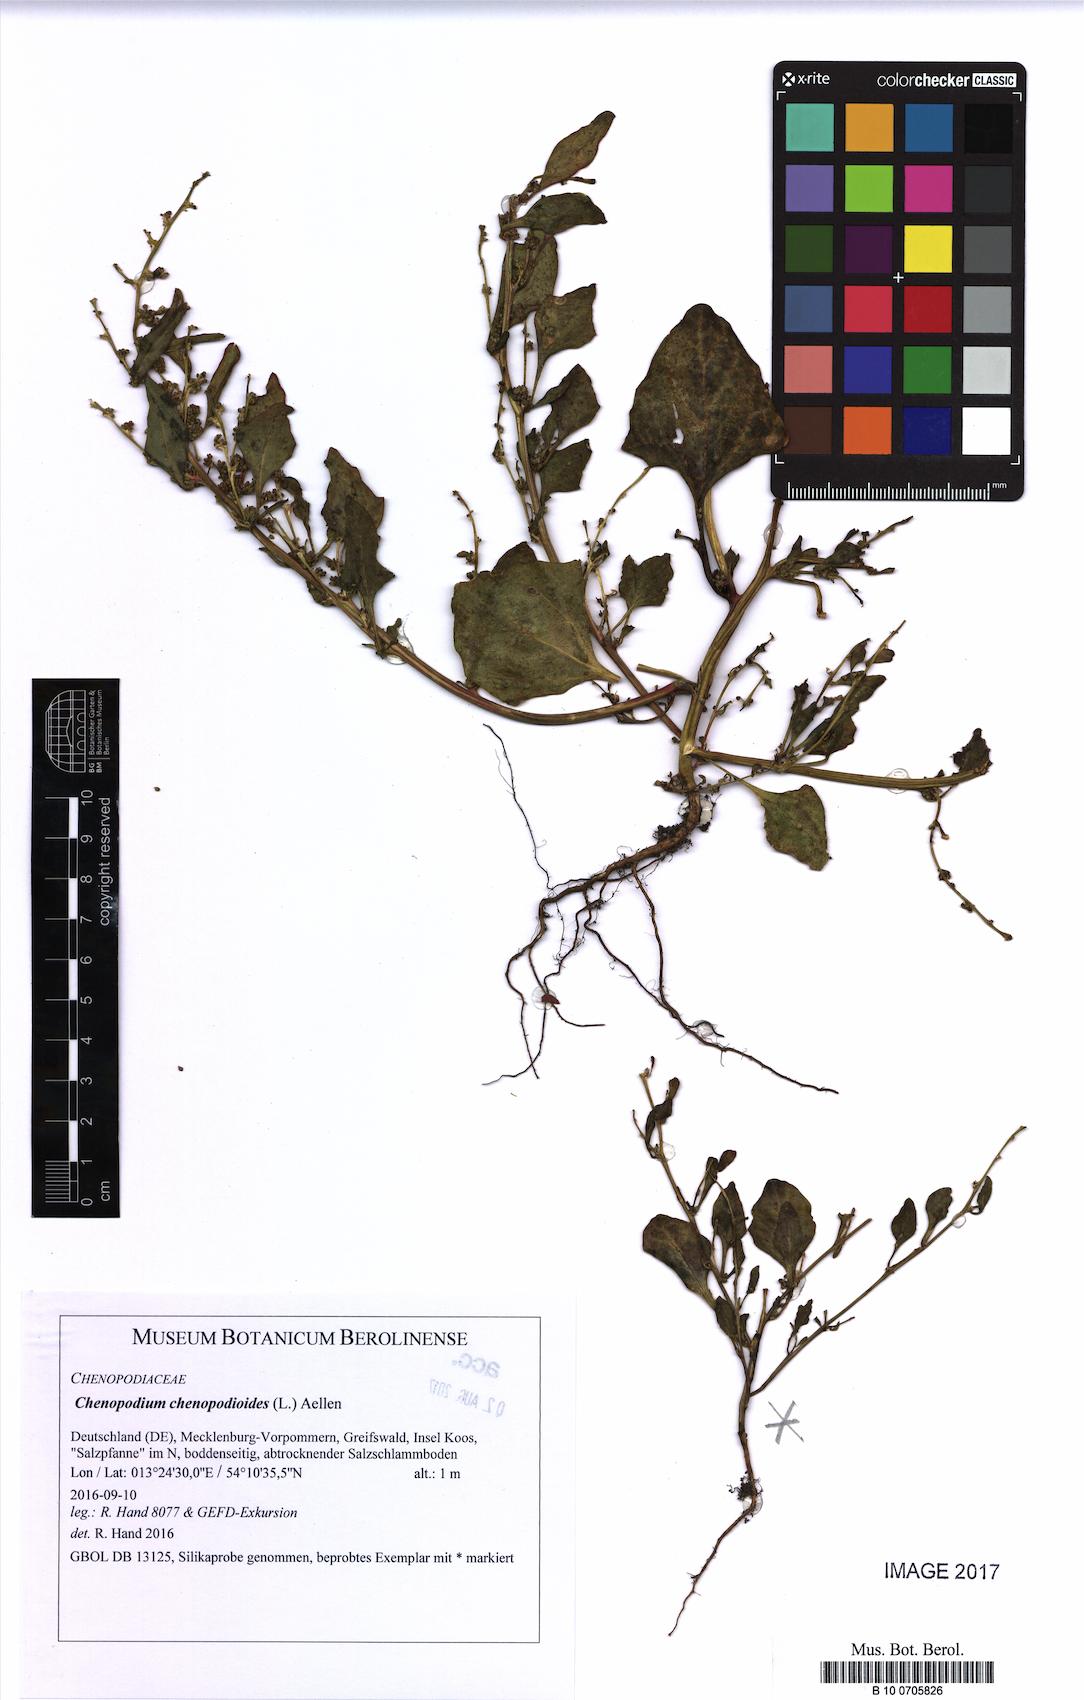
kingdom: Plantae
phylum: Tracheophyta
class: Magnoliopsida
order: Caryophyllales
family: Amaranthaceae
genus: Oxybasis
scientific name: Oxybasis chenopodioides
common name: Saltmarsh goosefoot
